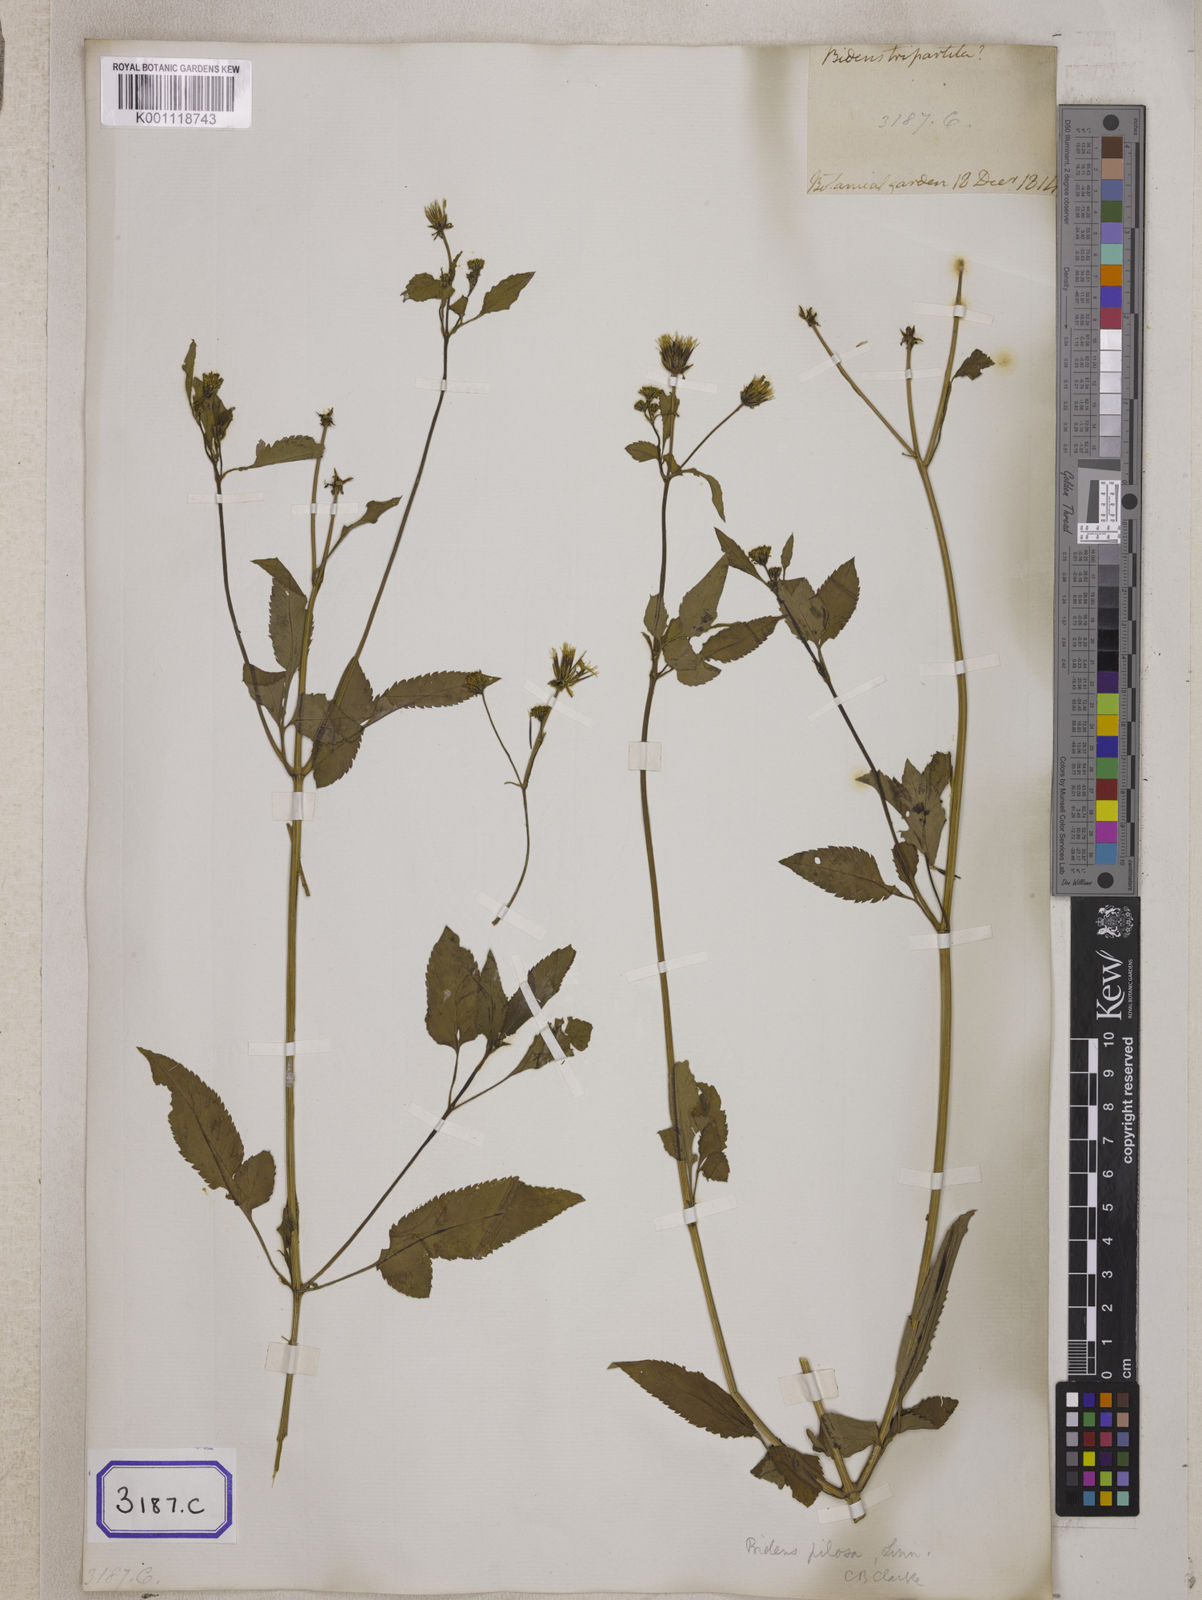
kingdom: Plantae
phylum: Tracheophyta
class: Magnoliopsida
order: Asterales
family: Asteraceae
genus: Bidens
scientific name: Bidens
